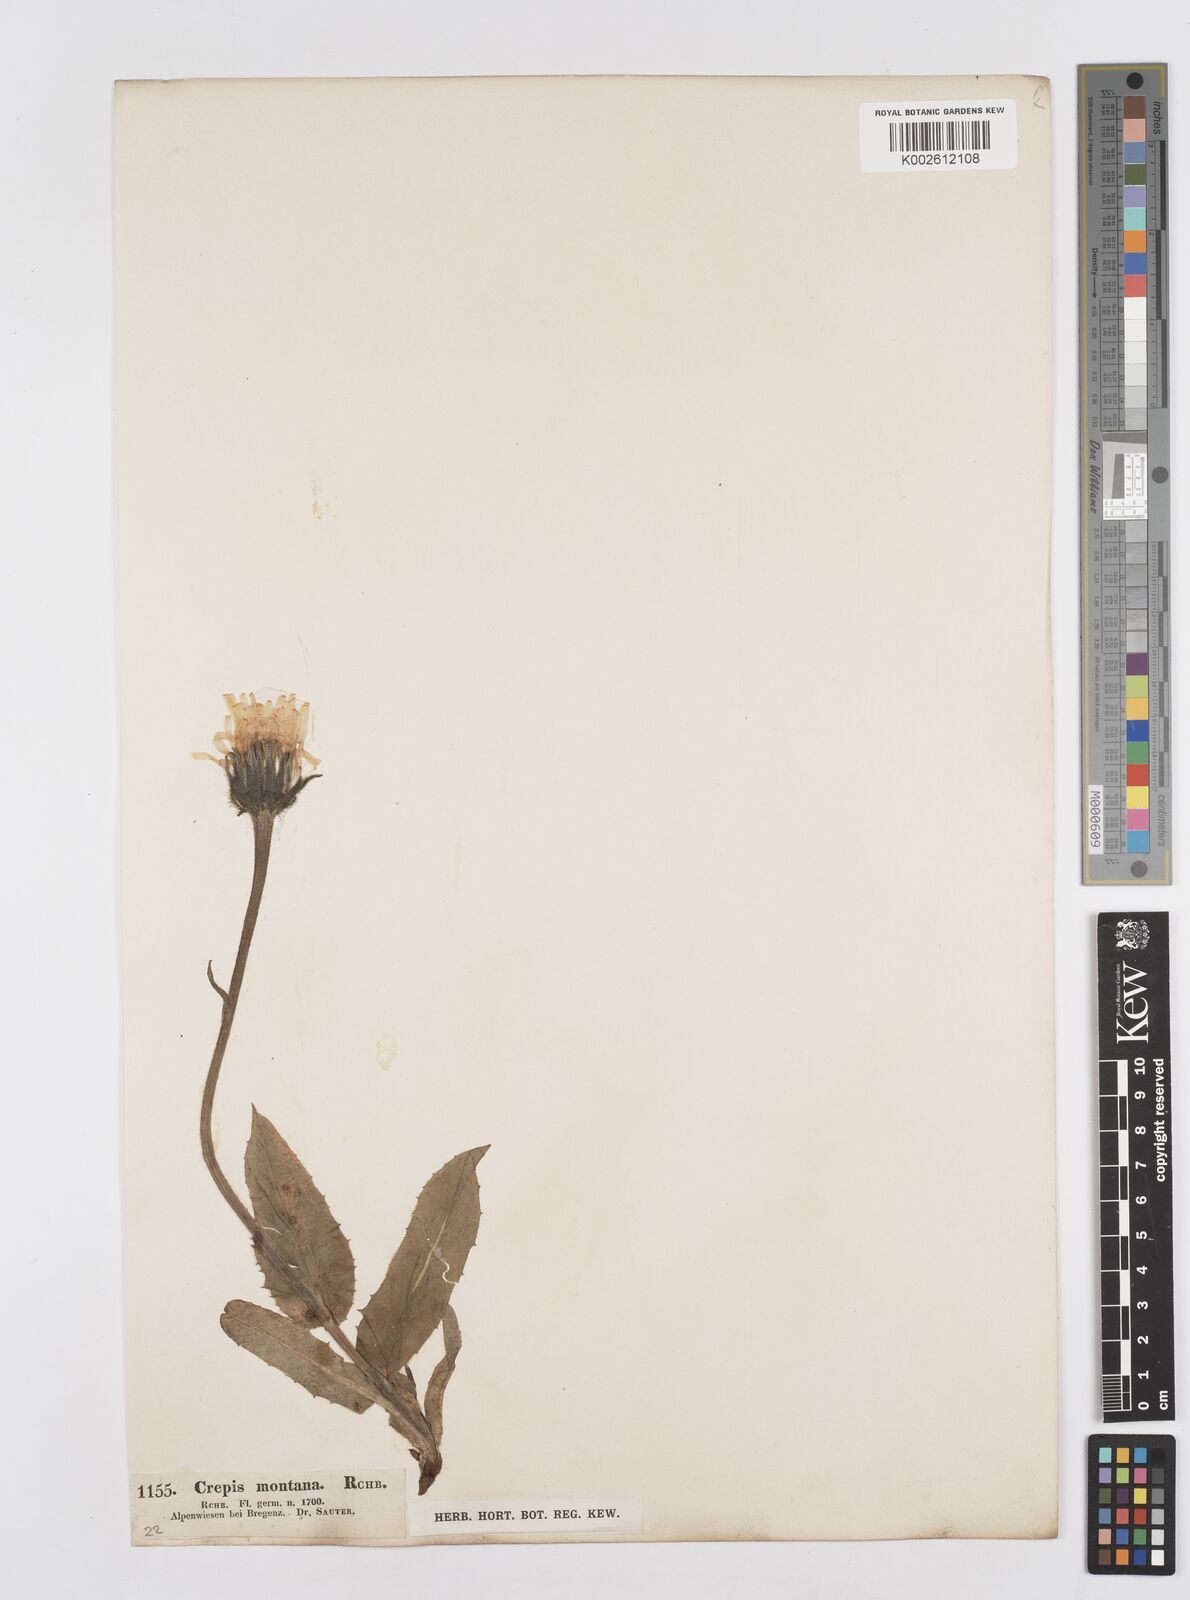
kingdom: Plantae
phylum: Tracheophyta
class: Magnoliopsida
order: Asterales
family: Asteraceae
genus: Hieracium
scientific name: Hieracium
